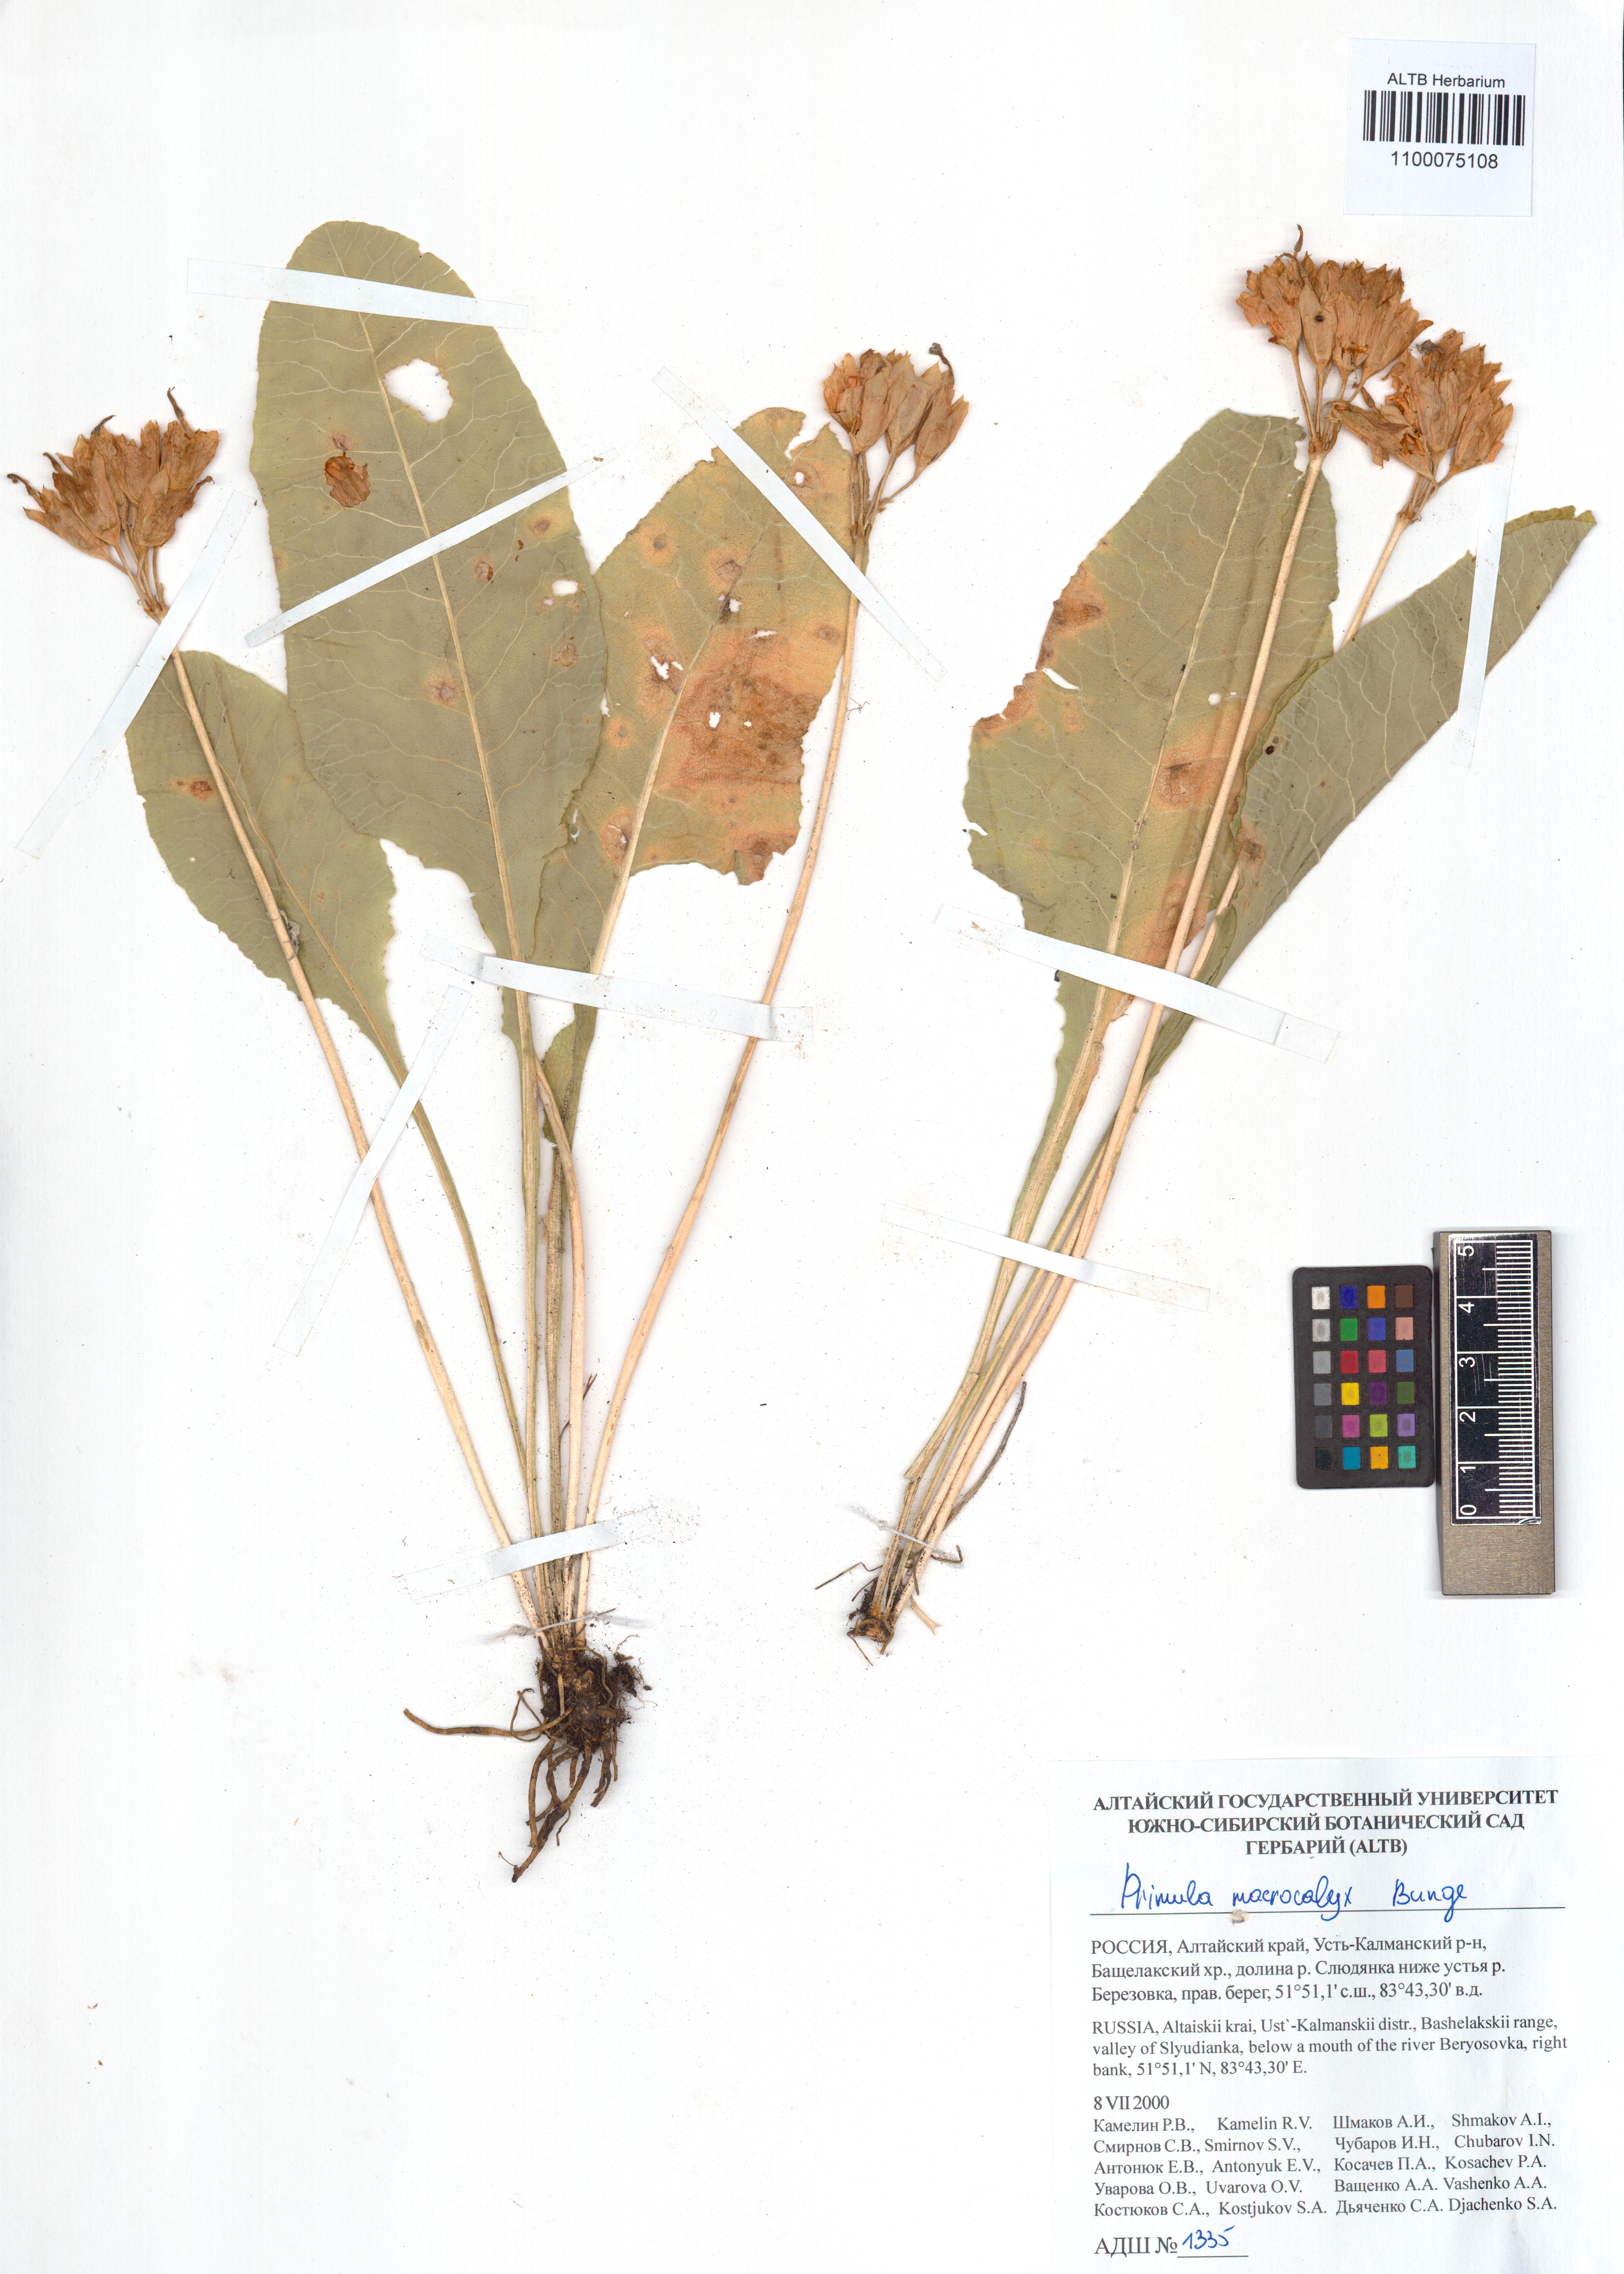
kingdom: Plantae
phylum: Tracheophyta
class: Magnoliopsida
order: Ericales
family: Primulaceae
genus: Primula
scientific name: Primula veris
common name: Cowslip
